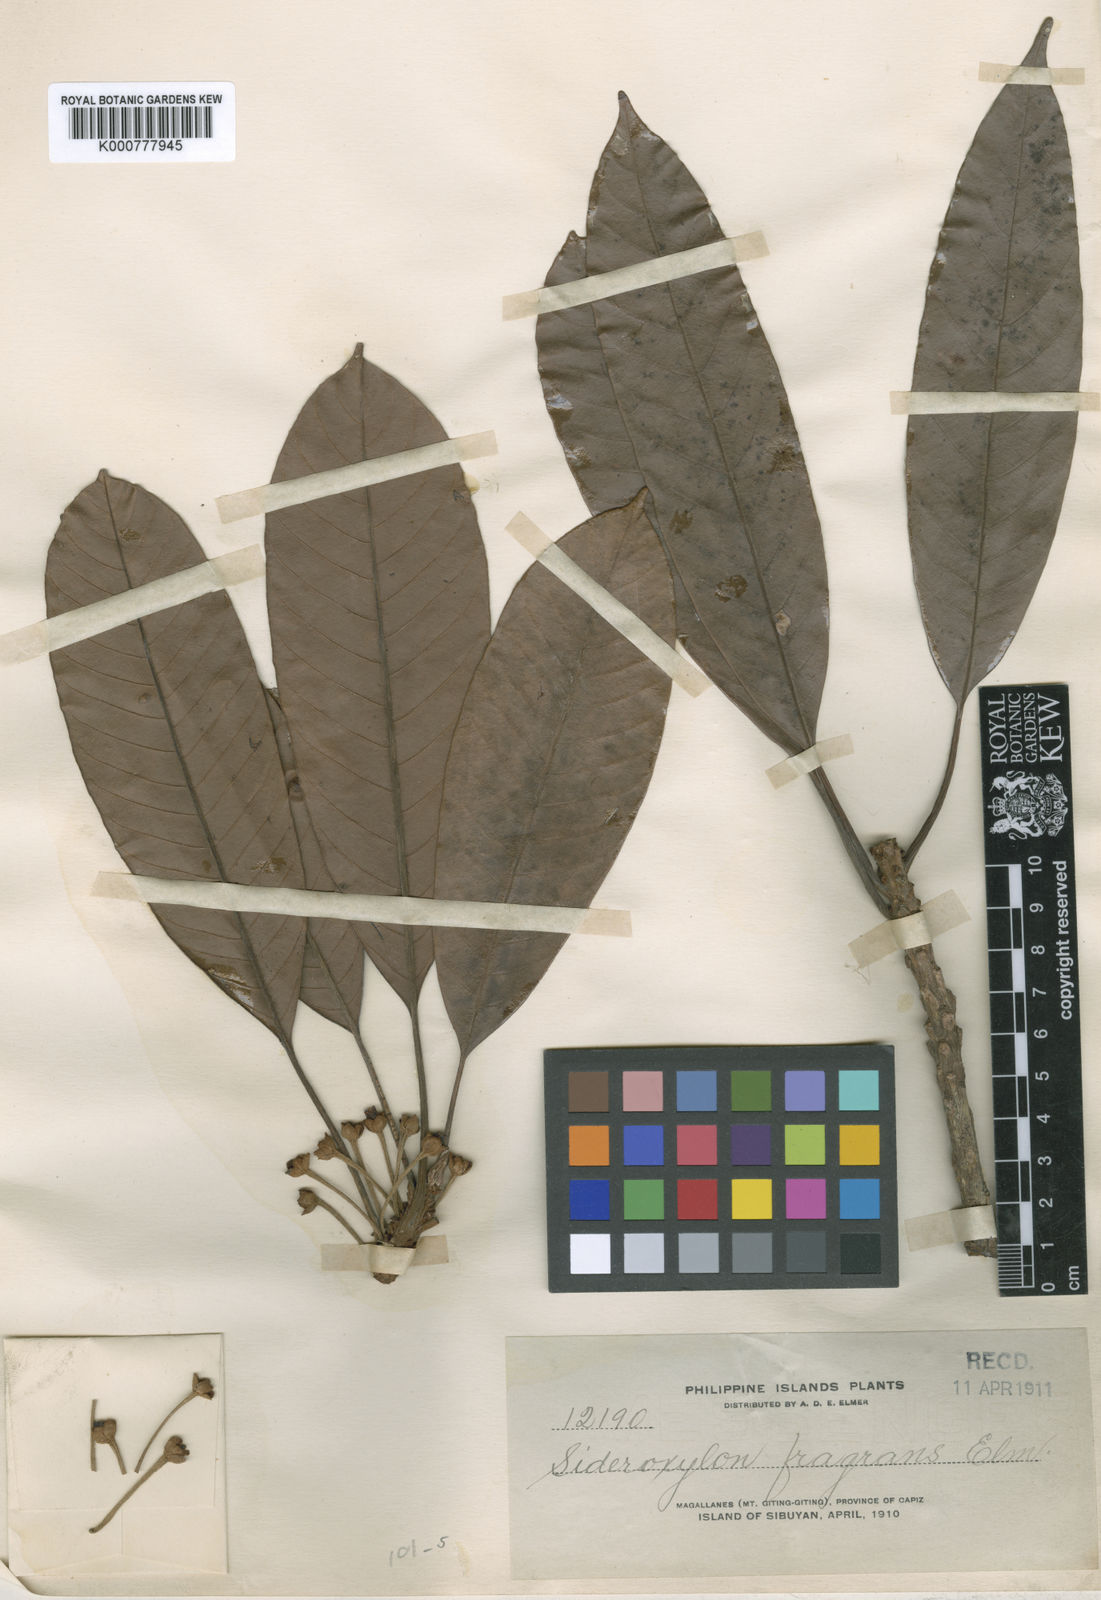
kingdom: Plantae
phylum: Tracheophyta
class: Magnoliopsida
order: Ericales
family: Sapotaceae
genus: Pleioluma
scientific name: Pleioluma firma
